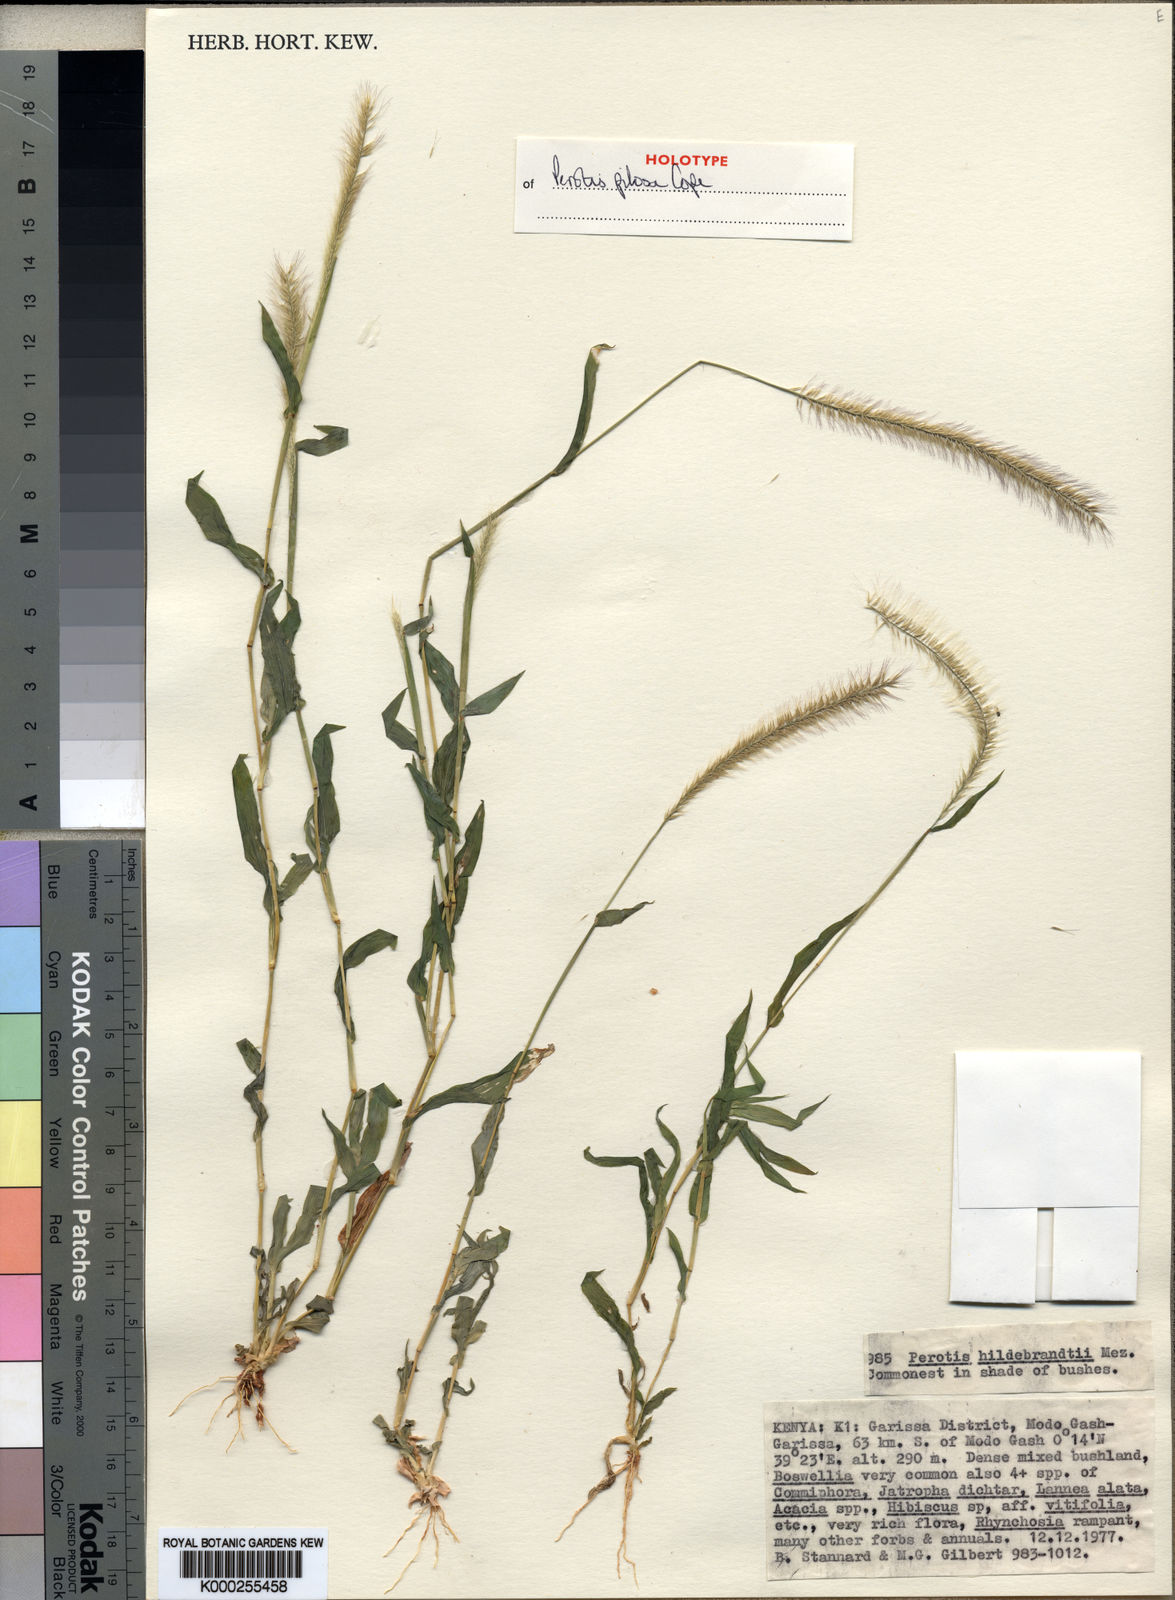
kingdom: Plantae
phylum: Tracheophyta
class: Liliopsida
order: Poales
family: Poaceae
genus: Perotis
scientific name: Perotis pilosa
